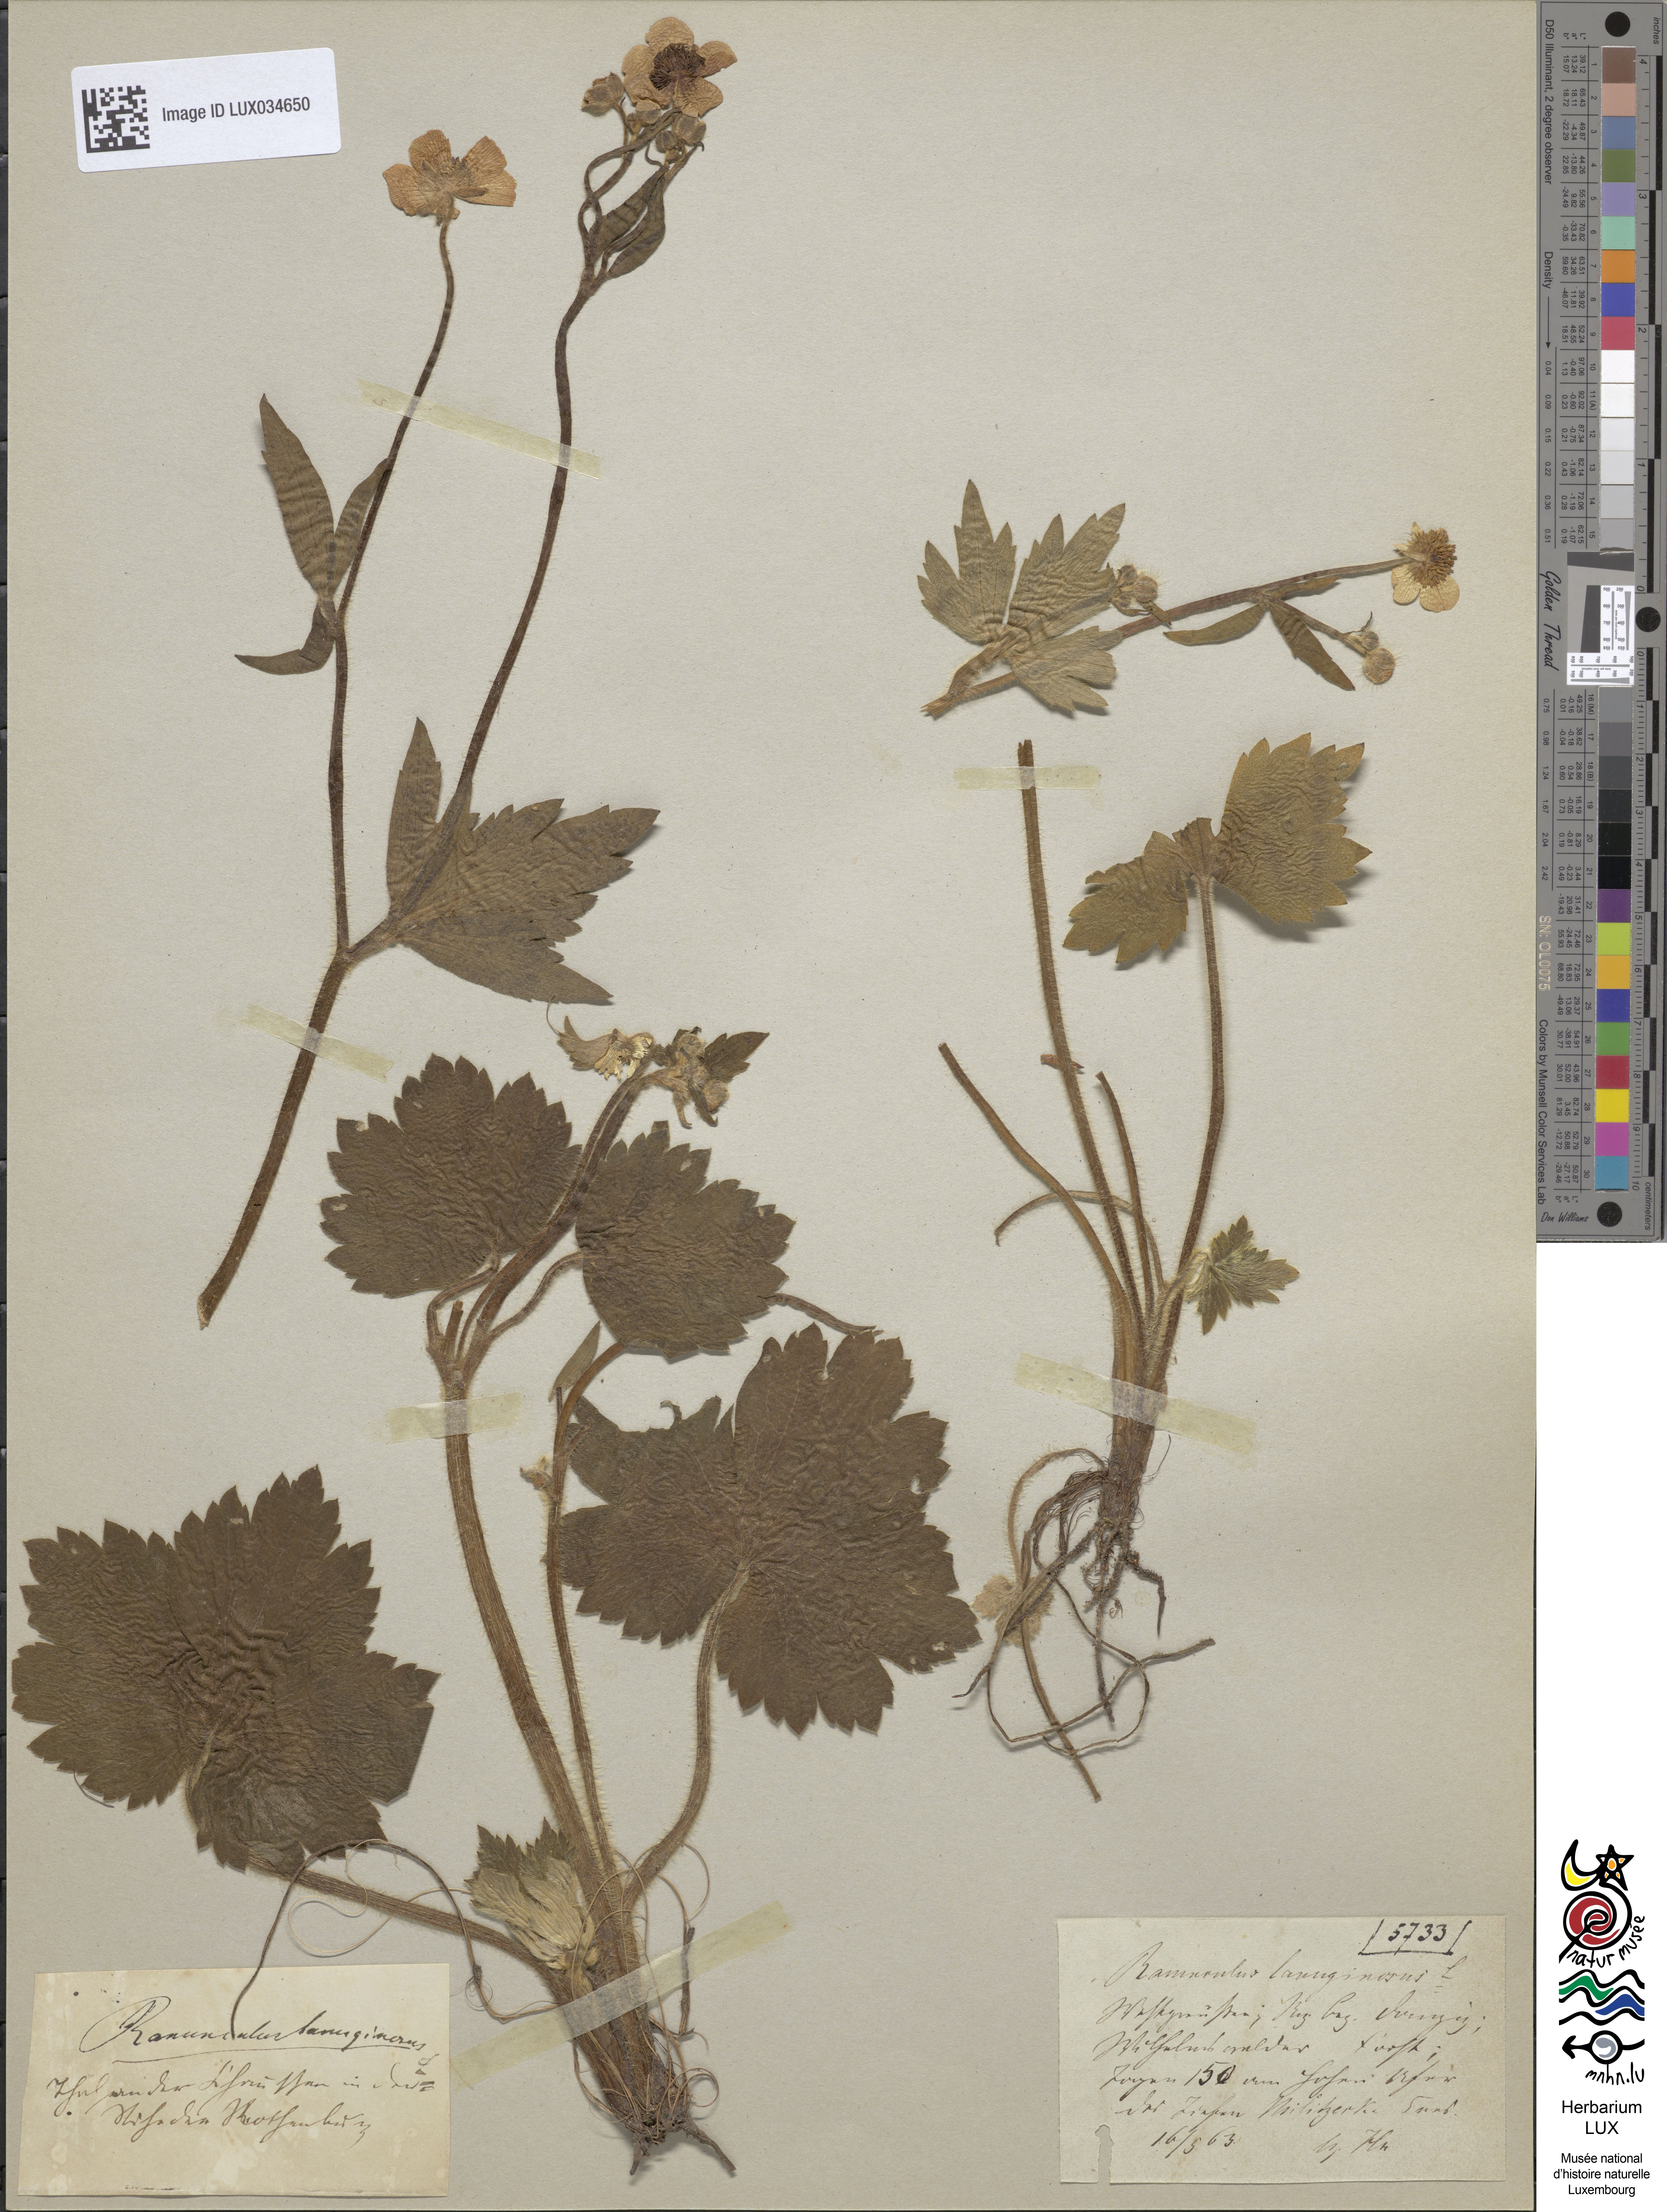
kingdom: Plantae
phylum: Tracheophyta
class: Magnoliopsida
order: Ranunculales
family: Ranunculaceae
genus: Ranunculus
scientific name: Ranunculus lanuginosus
